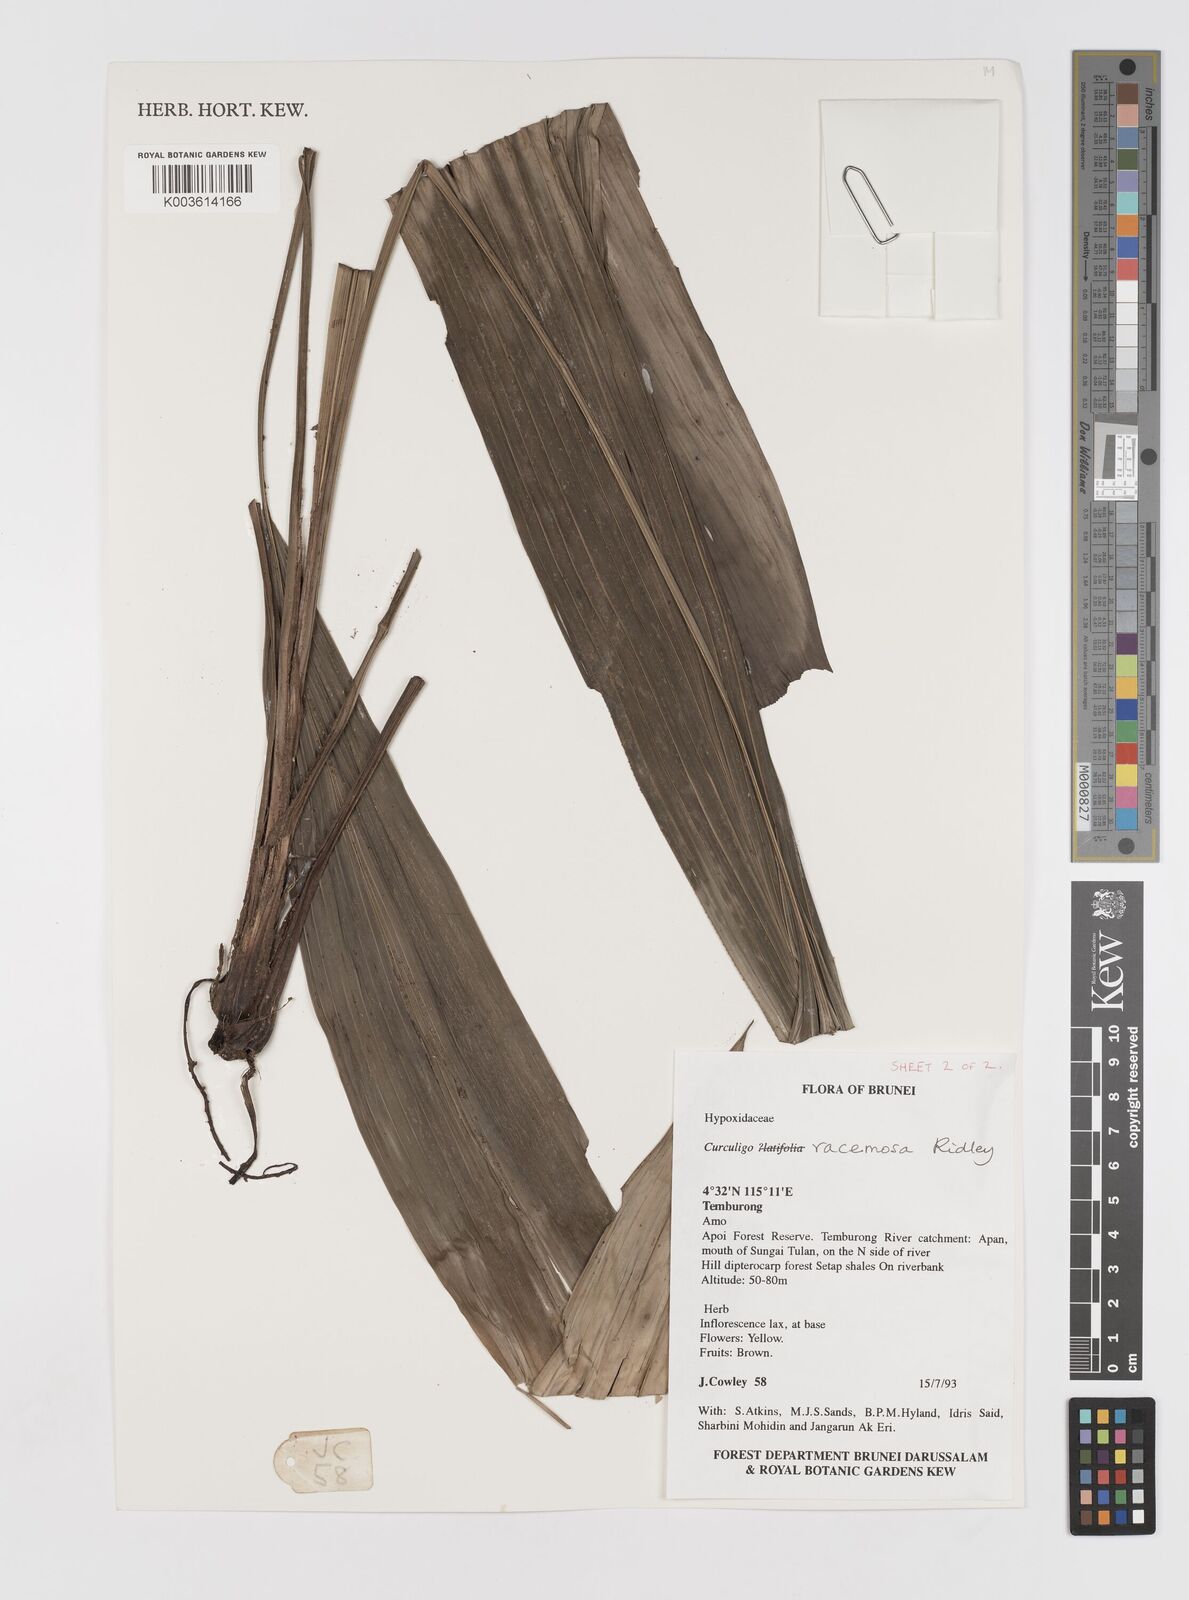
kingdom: Plantae
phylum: Tracheophyta
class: Liliopsida
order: Asparagales
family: Hypoxidaceae
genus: Curculigo
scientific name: Curculigo racemosa
